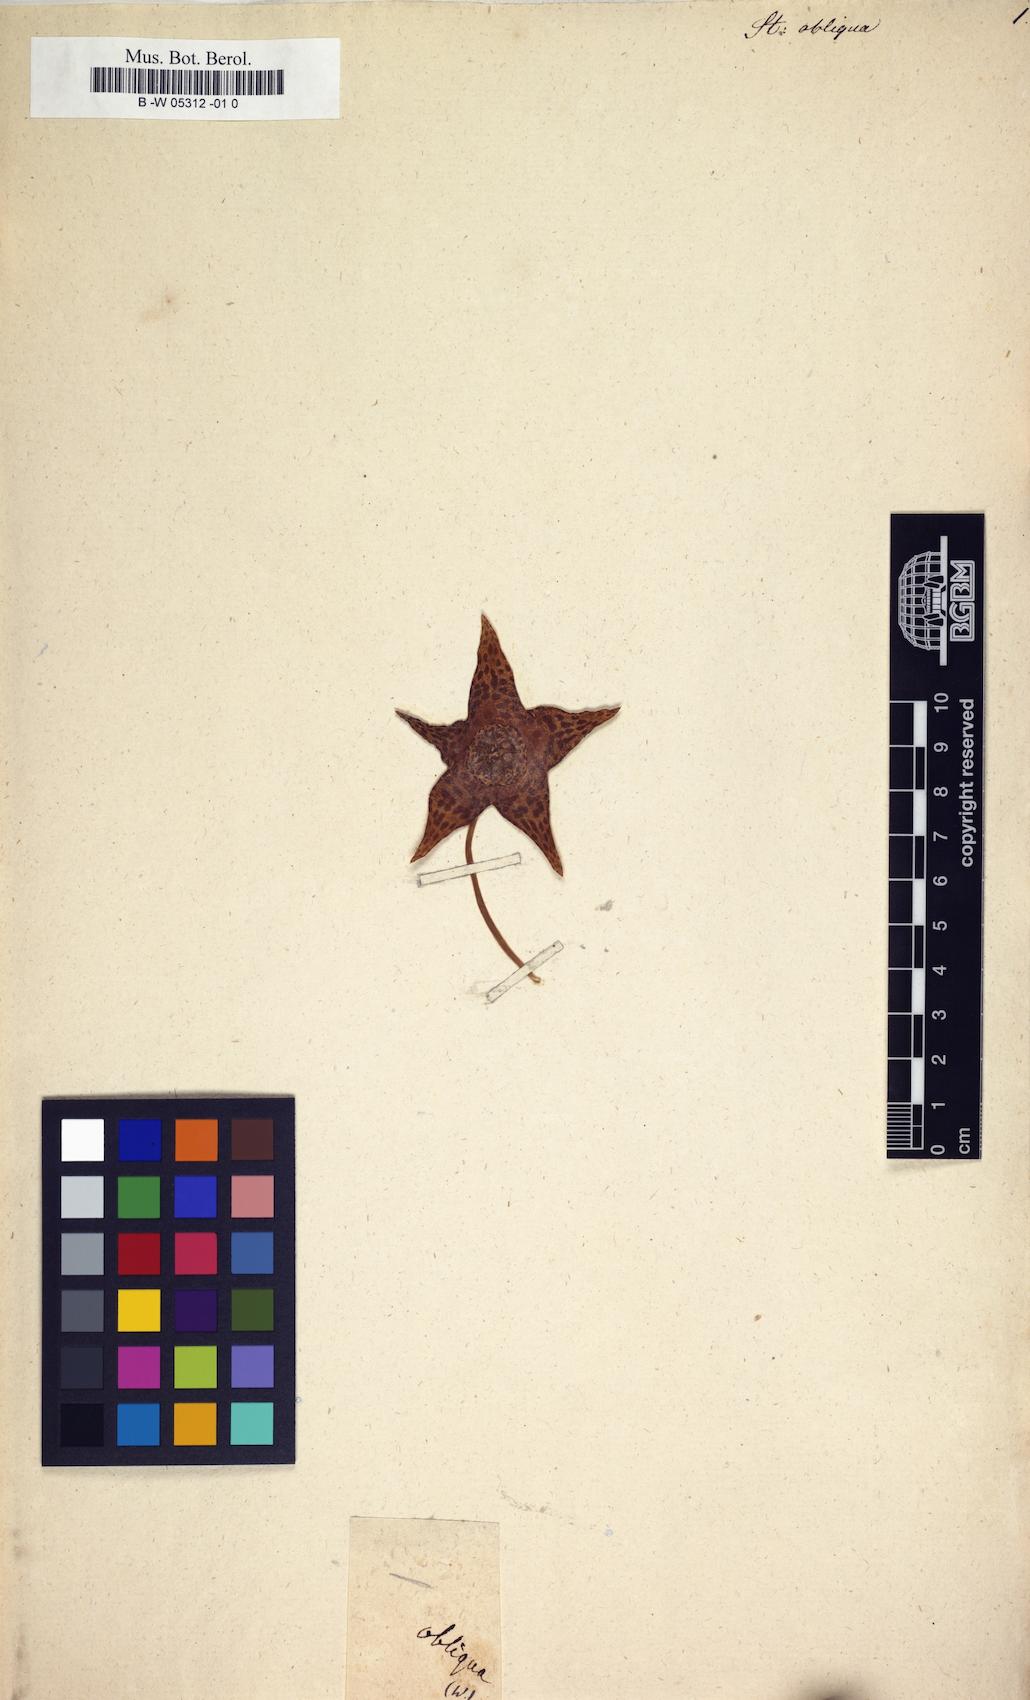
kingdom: Plantae
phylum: Tracheophyta
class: Magnoliopsida
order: Gentianales
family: Apocynaceae
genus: Ceropegia
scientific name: Ceropegia mixta
